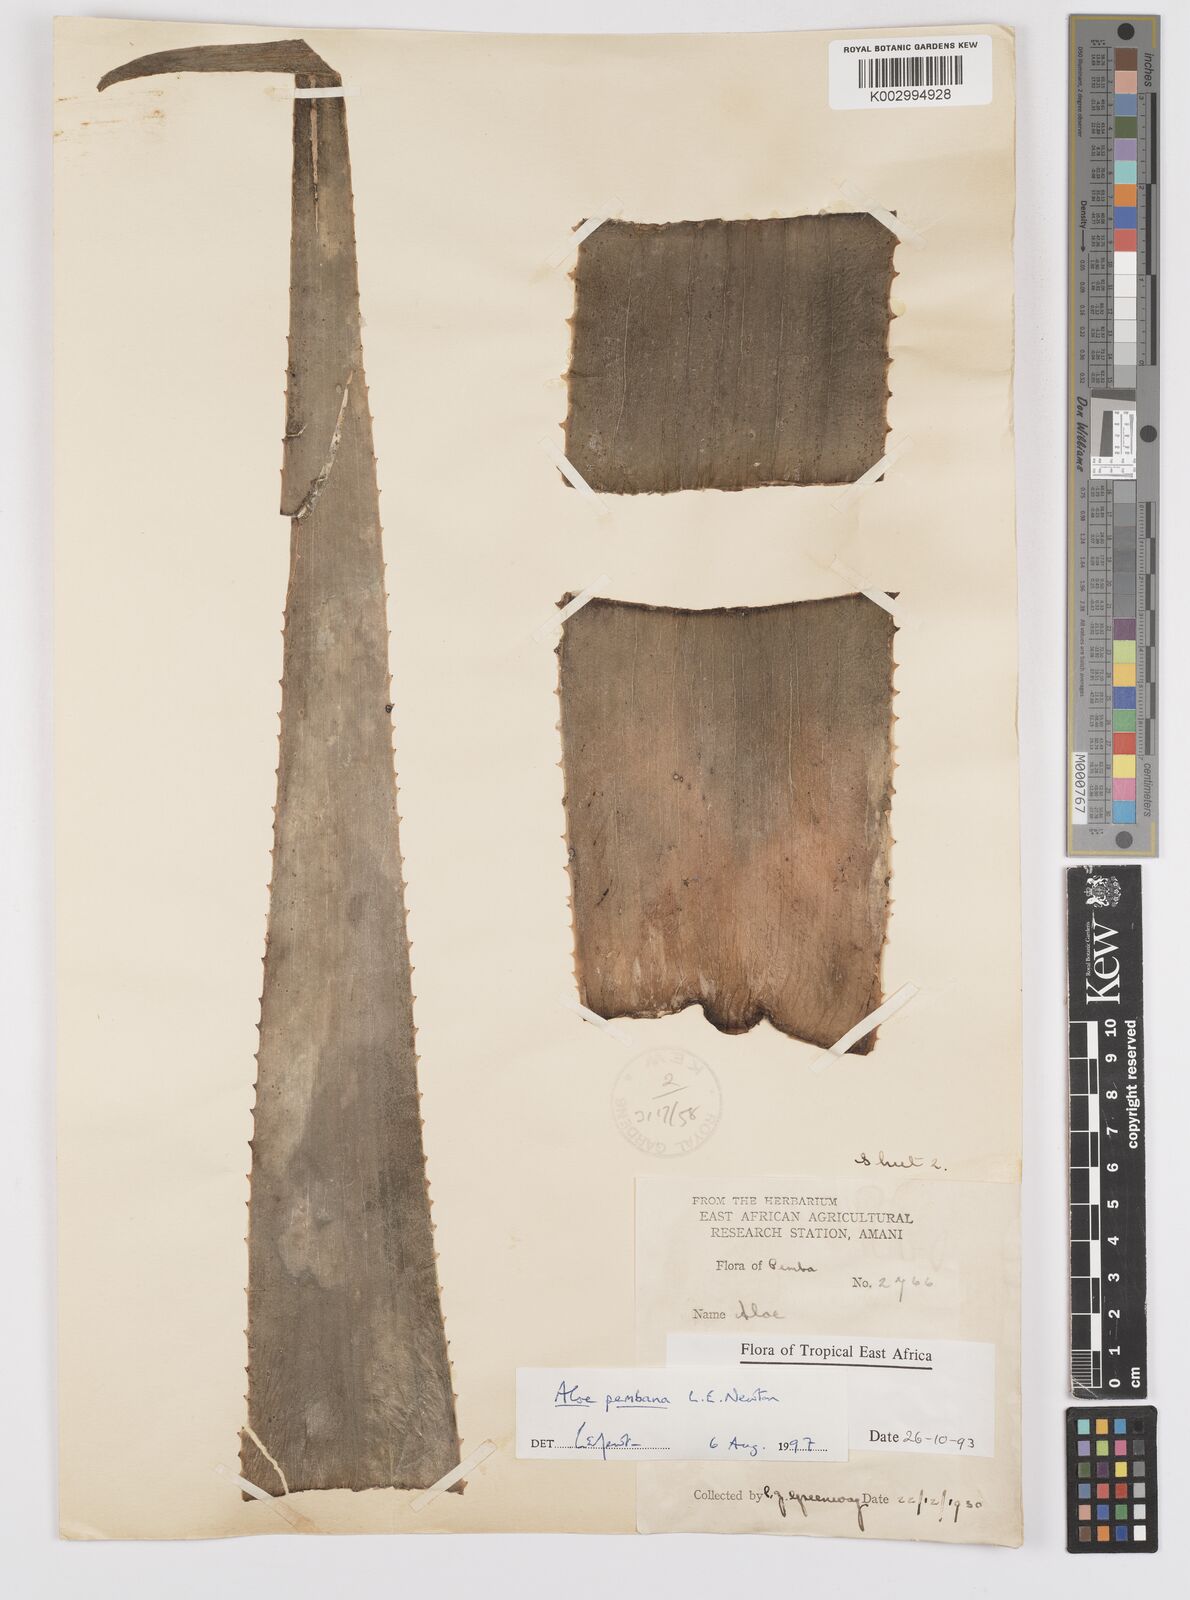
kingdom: Plantae
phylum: Tracheophyta
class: Liliopsida
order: Asparagales
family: Asphodelaceae
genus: Aloe
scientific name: Aloe pembana
